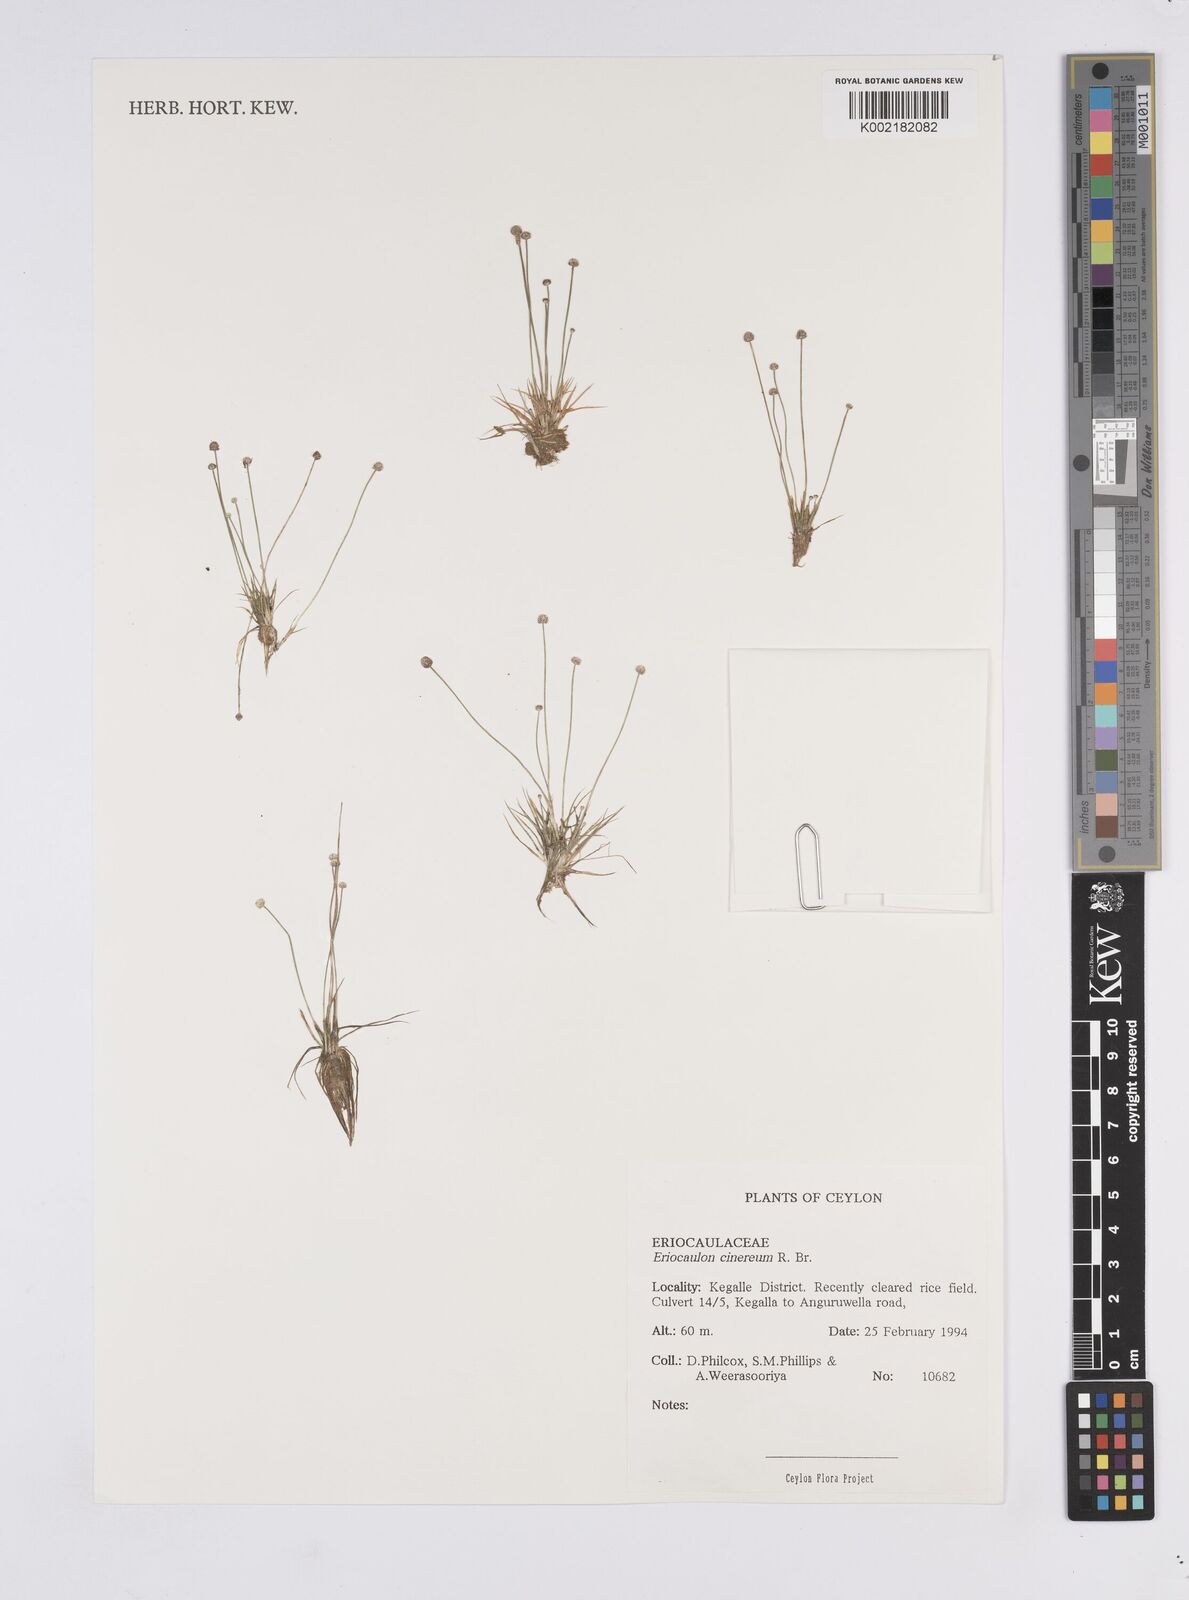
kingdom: Plantae
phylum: Tracheophyta
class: Liliopsida
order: Poales
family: Eriocaulaceae
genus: Eriocaulon
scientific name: Eriocaulon cinereum
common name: Ashy pipewort
